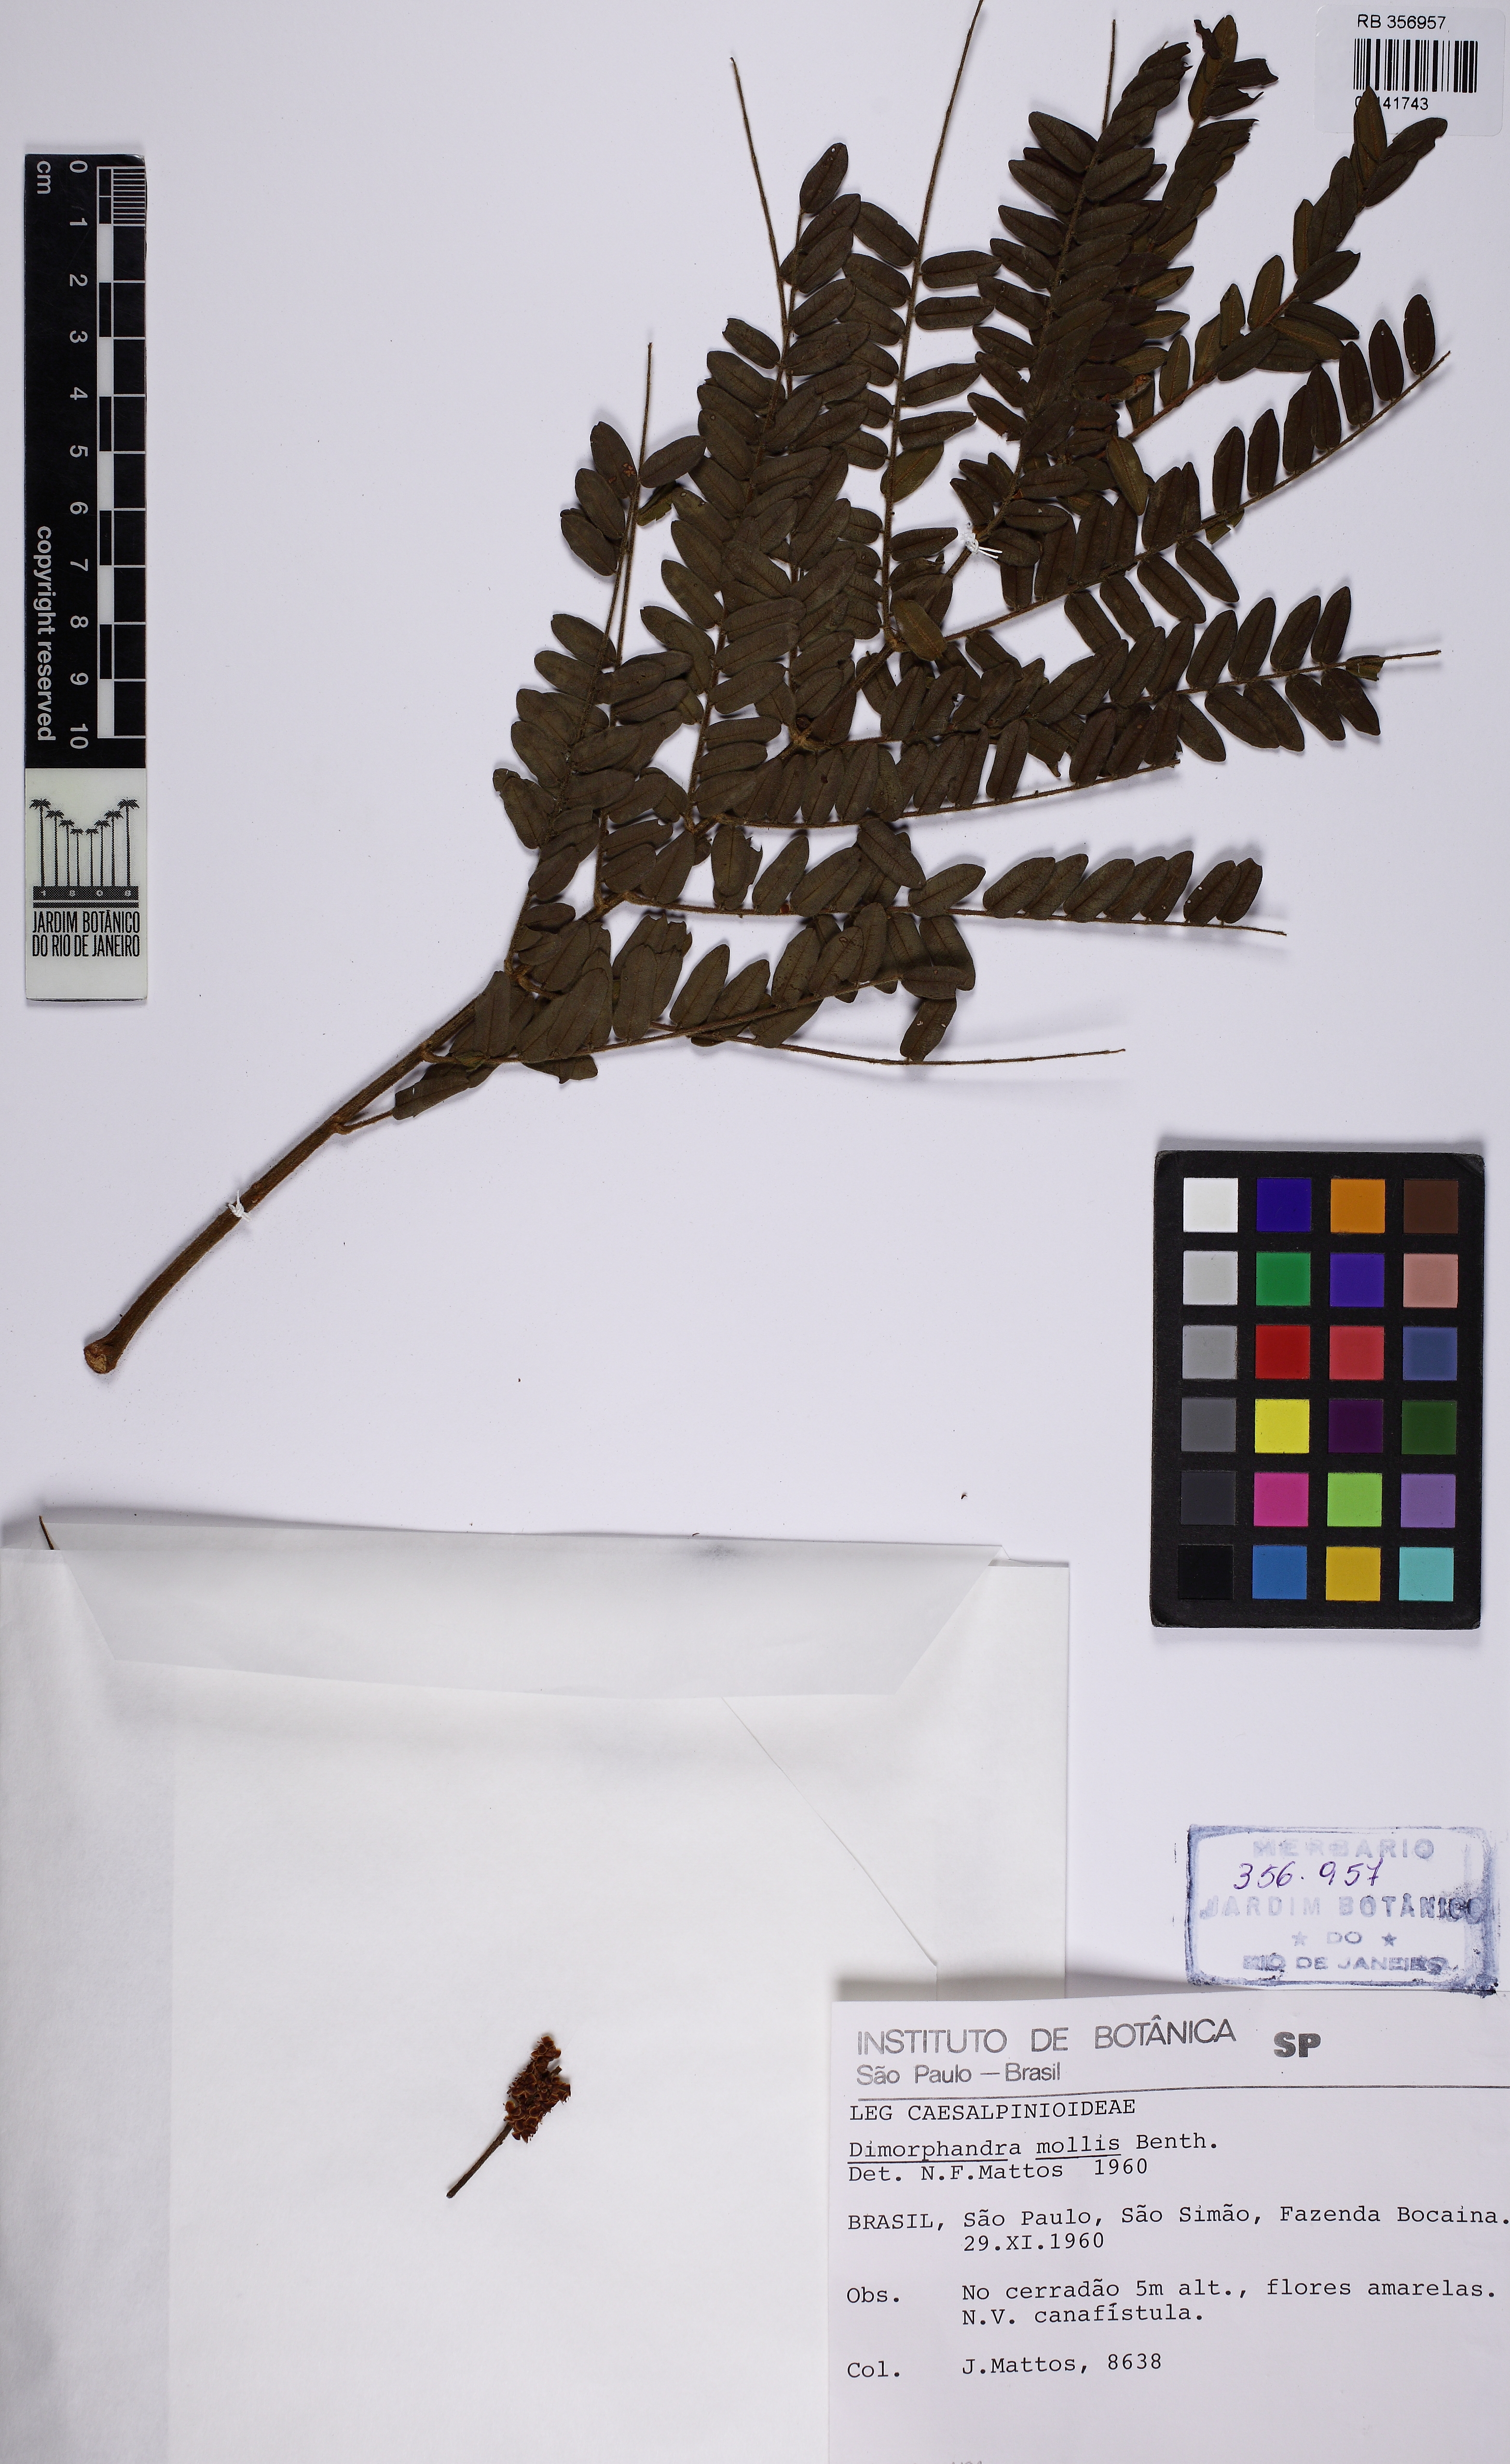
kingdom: Plantae
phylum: Tracheophyta
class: Magnoliopsida
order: Fabales
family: Fabaceae
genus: Dimorphandra
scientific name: Dimorphandra mollis
